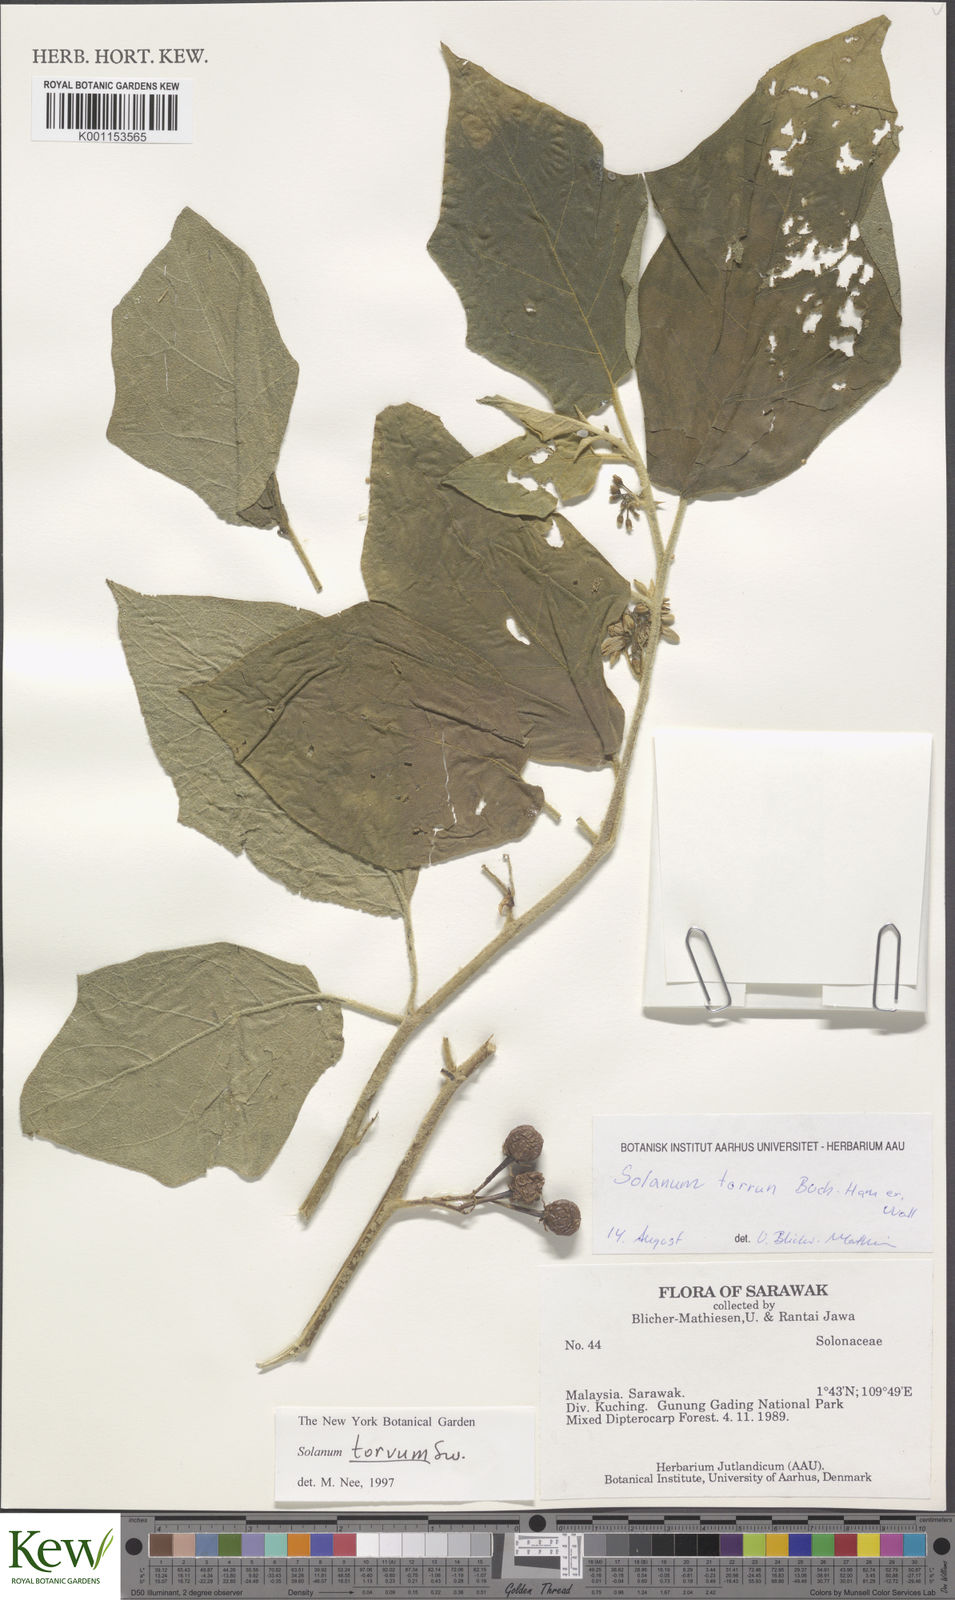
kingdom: Plantae
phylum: Tracheophyta
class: Magnoliopsida
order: Solanales
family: Solanaceae
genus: Solanum
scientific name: Solanum torvum
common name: Turkey berry
